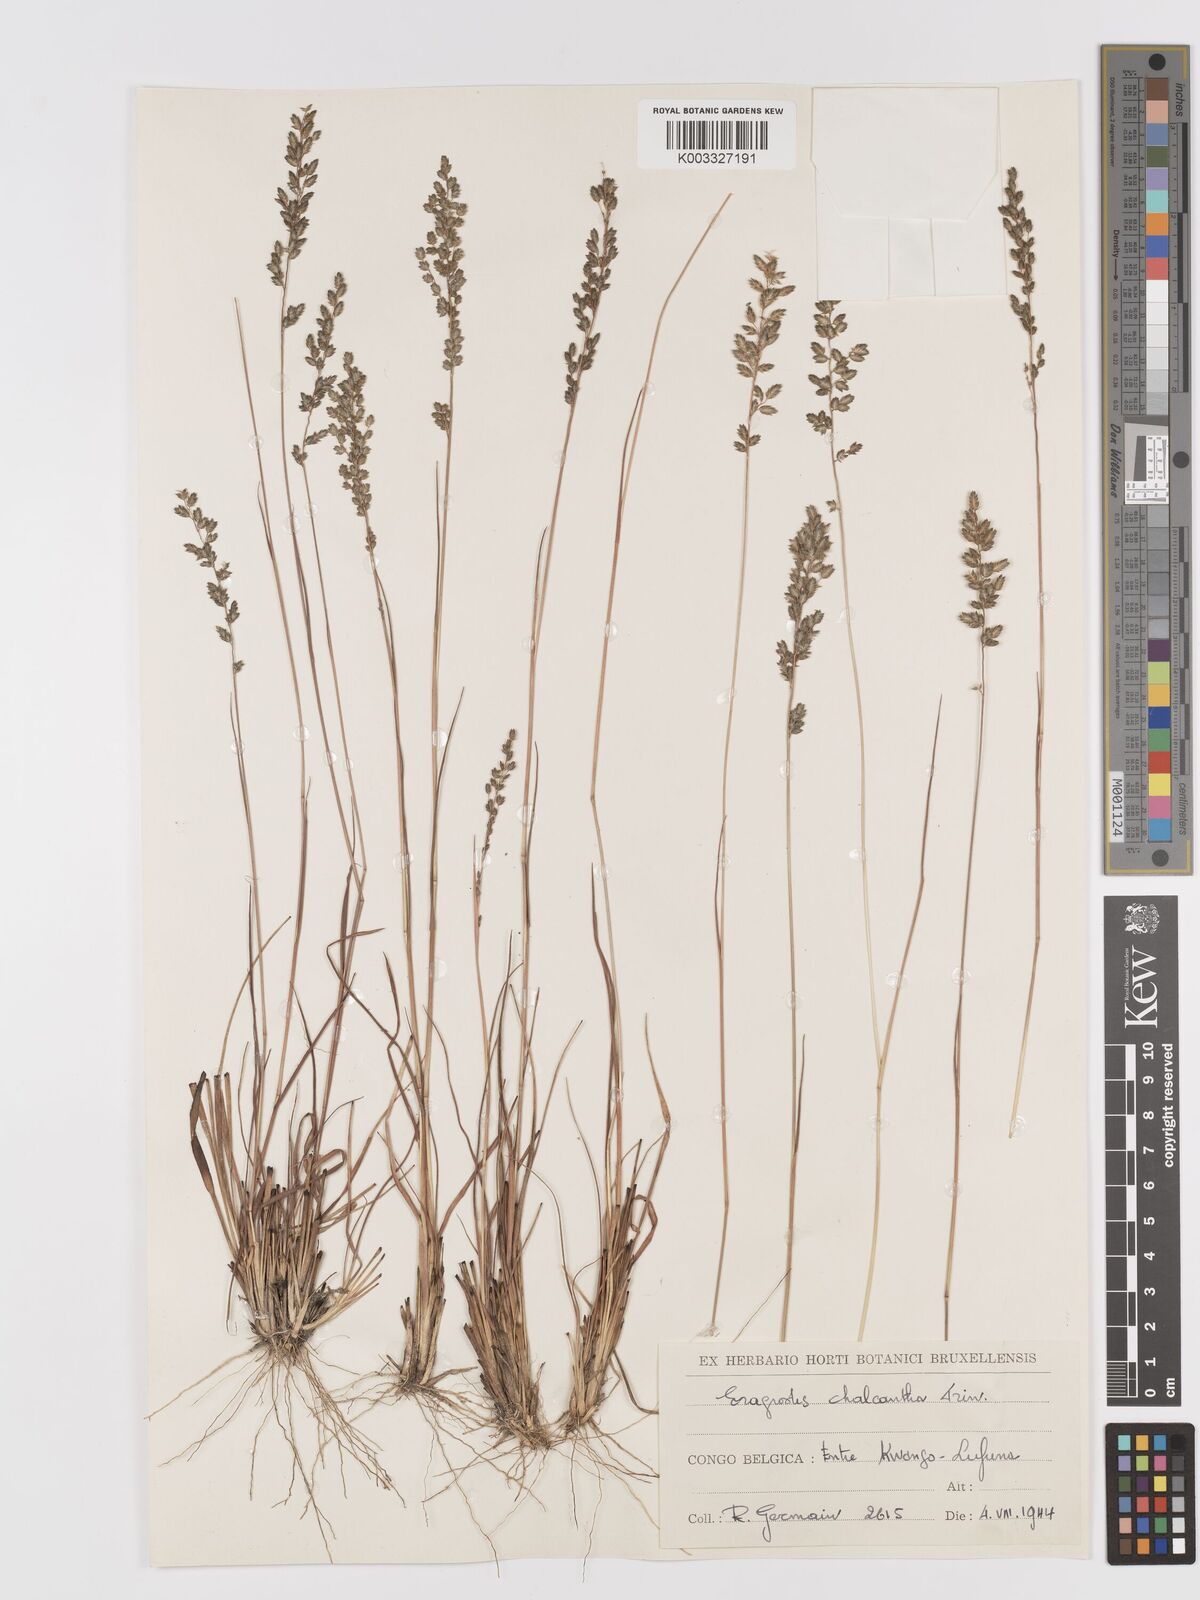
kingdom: Plantae
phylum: Tracheophyta
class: Liliopsida
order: Poales
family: Poaceae
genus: Eragrostis
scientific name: Eragrostis racemosa
